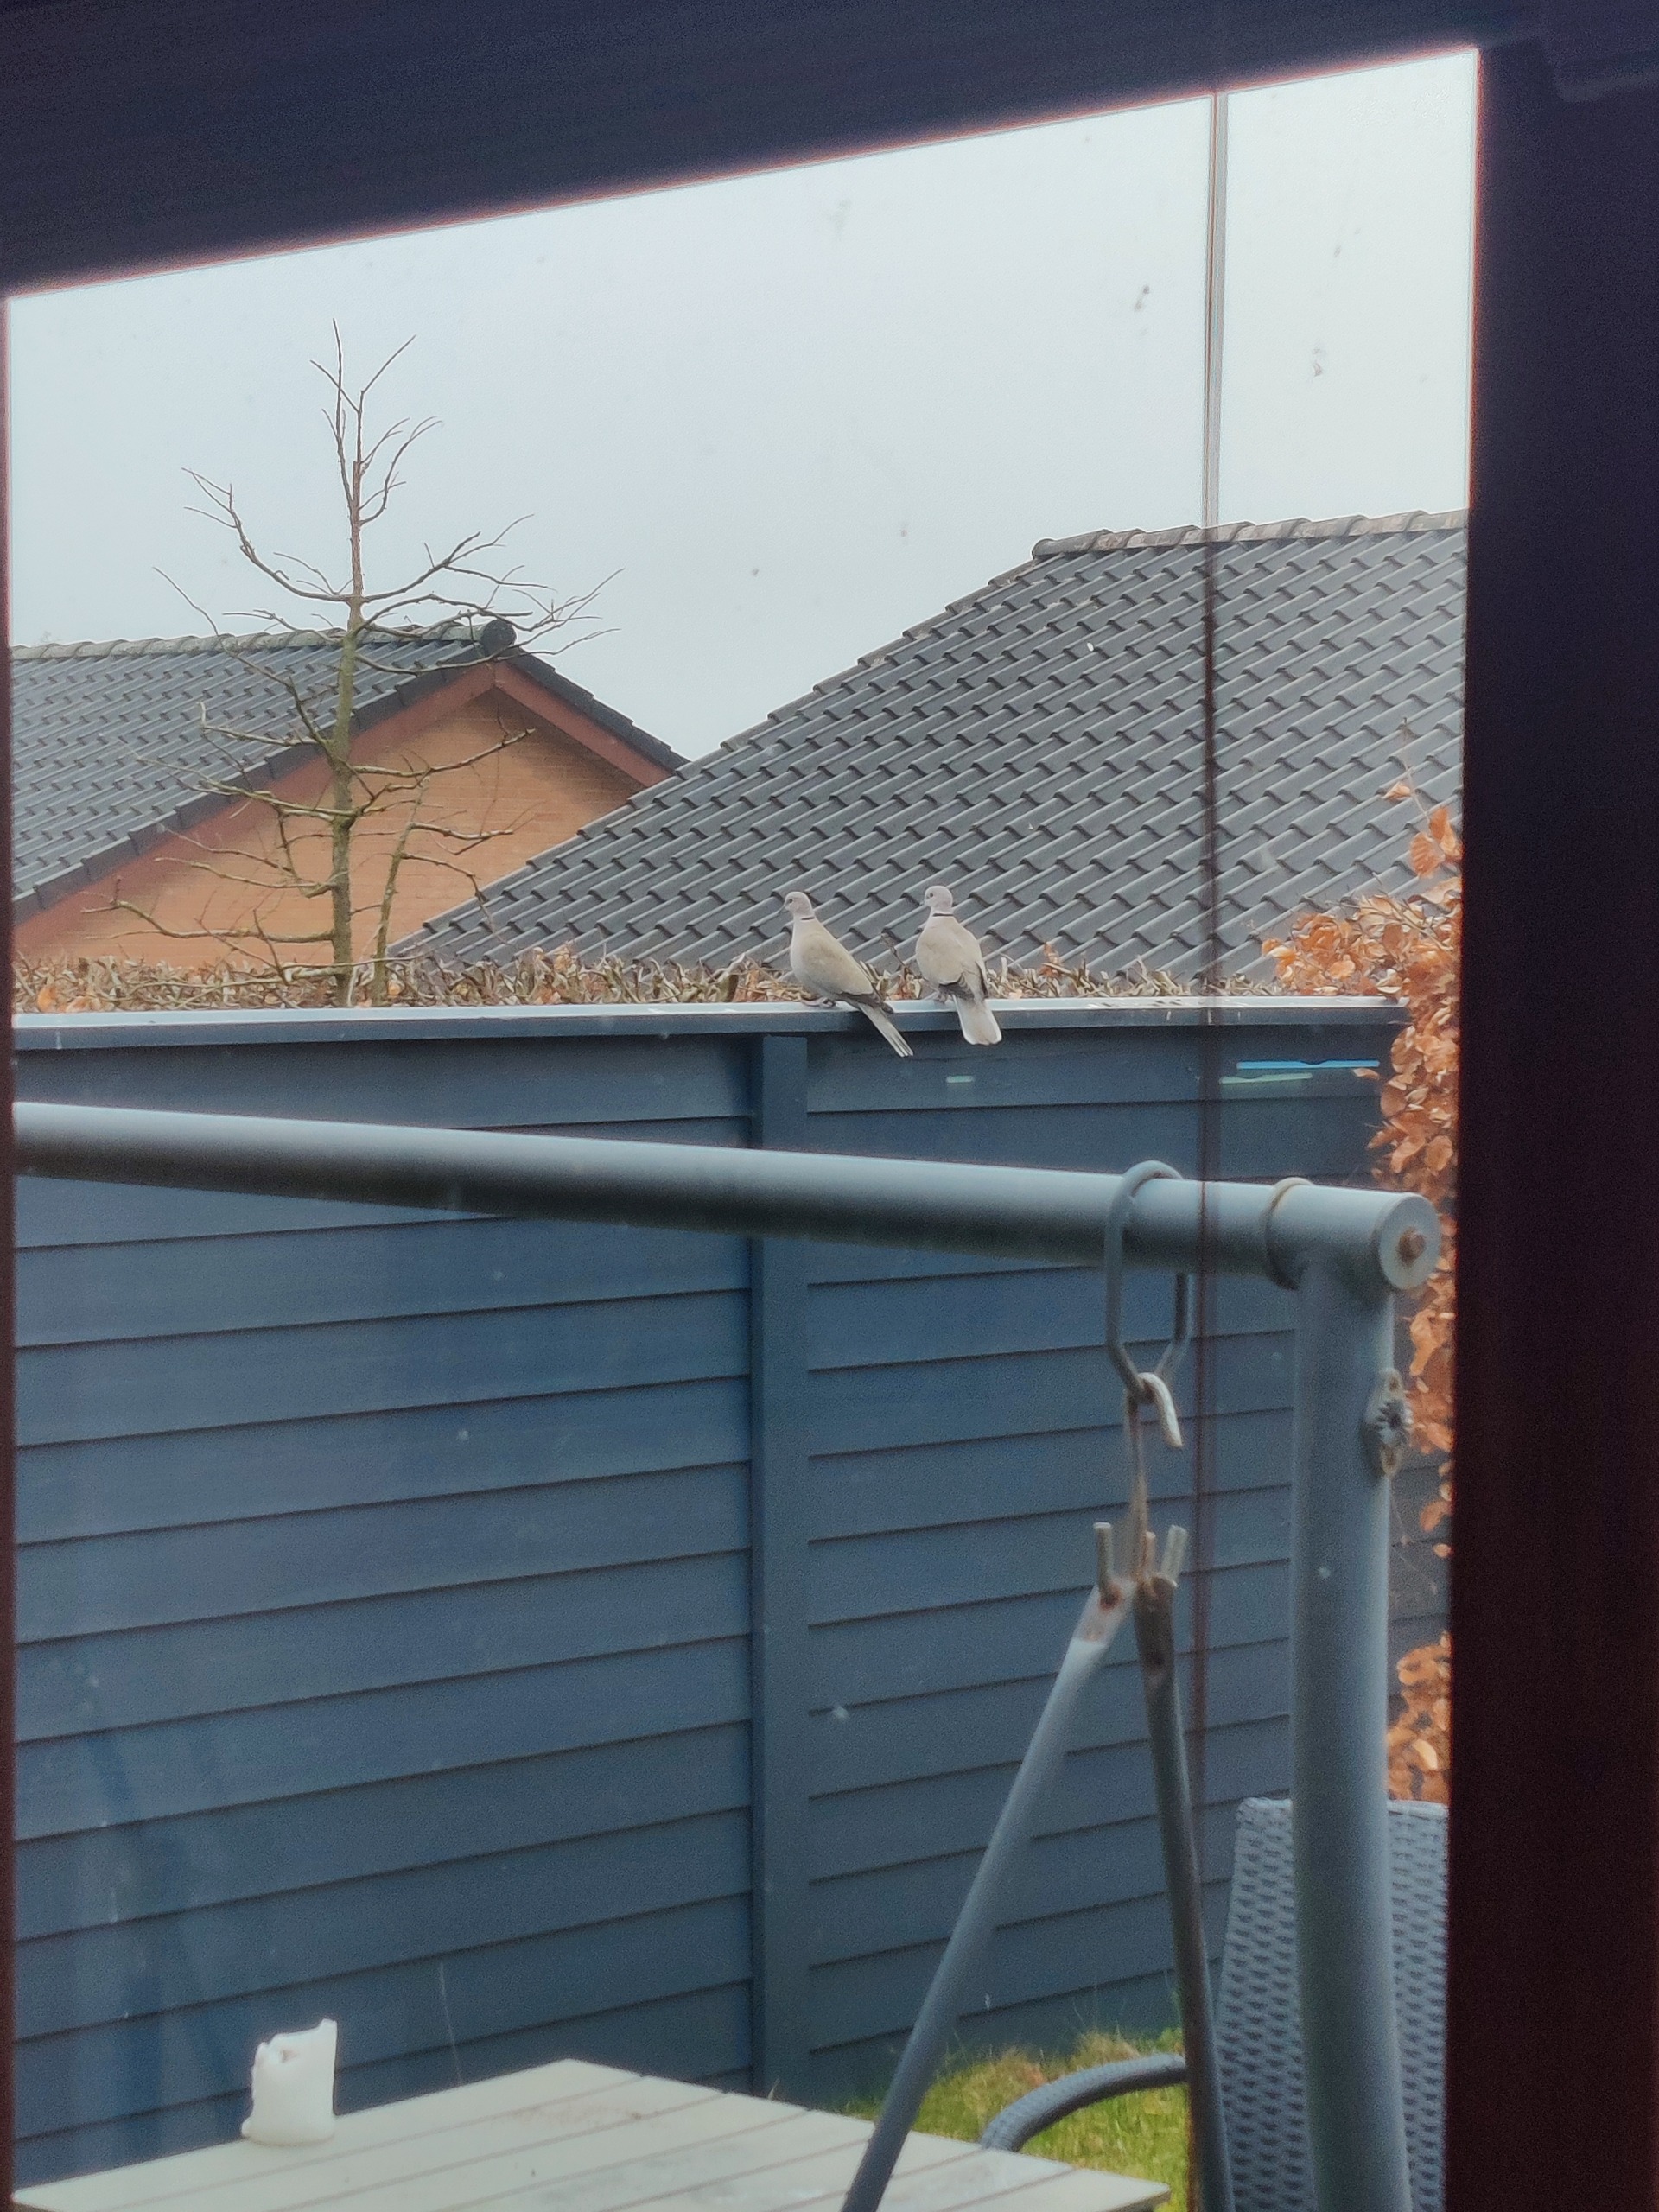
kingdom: Animalia
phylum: Chordata
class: Aves
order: Columbiformes
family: Columbidae
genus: Streptopelia
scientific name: Streptopelia decaocto
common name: Tyrkerdue
